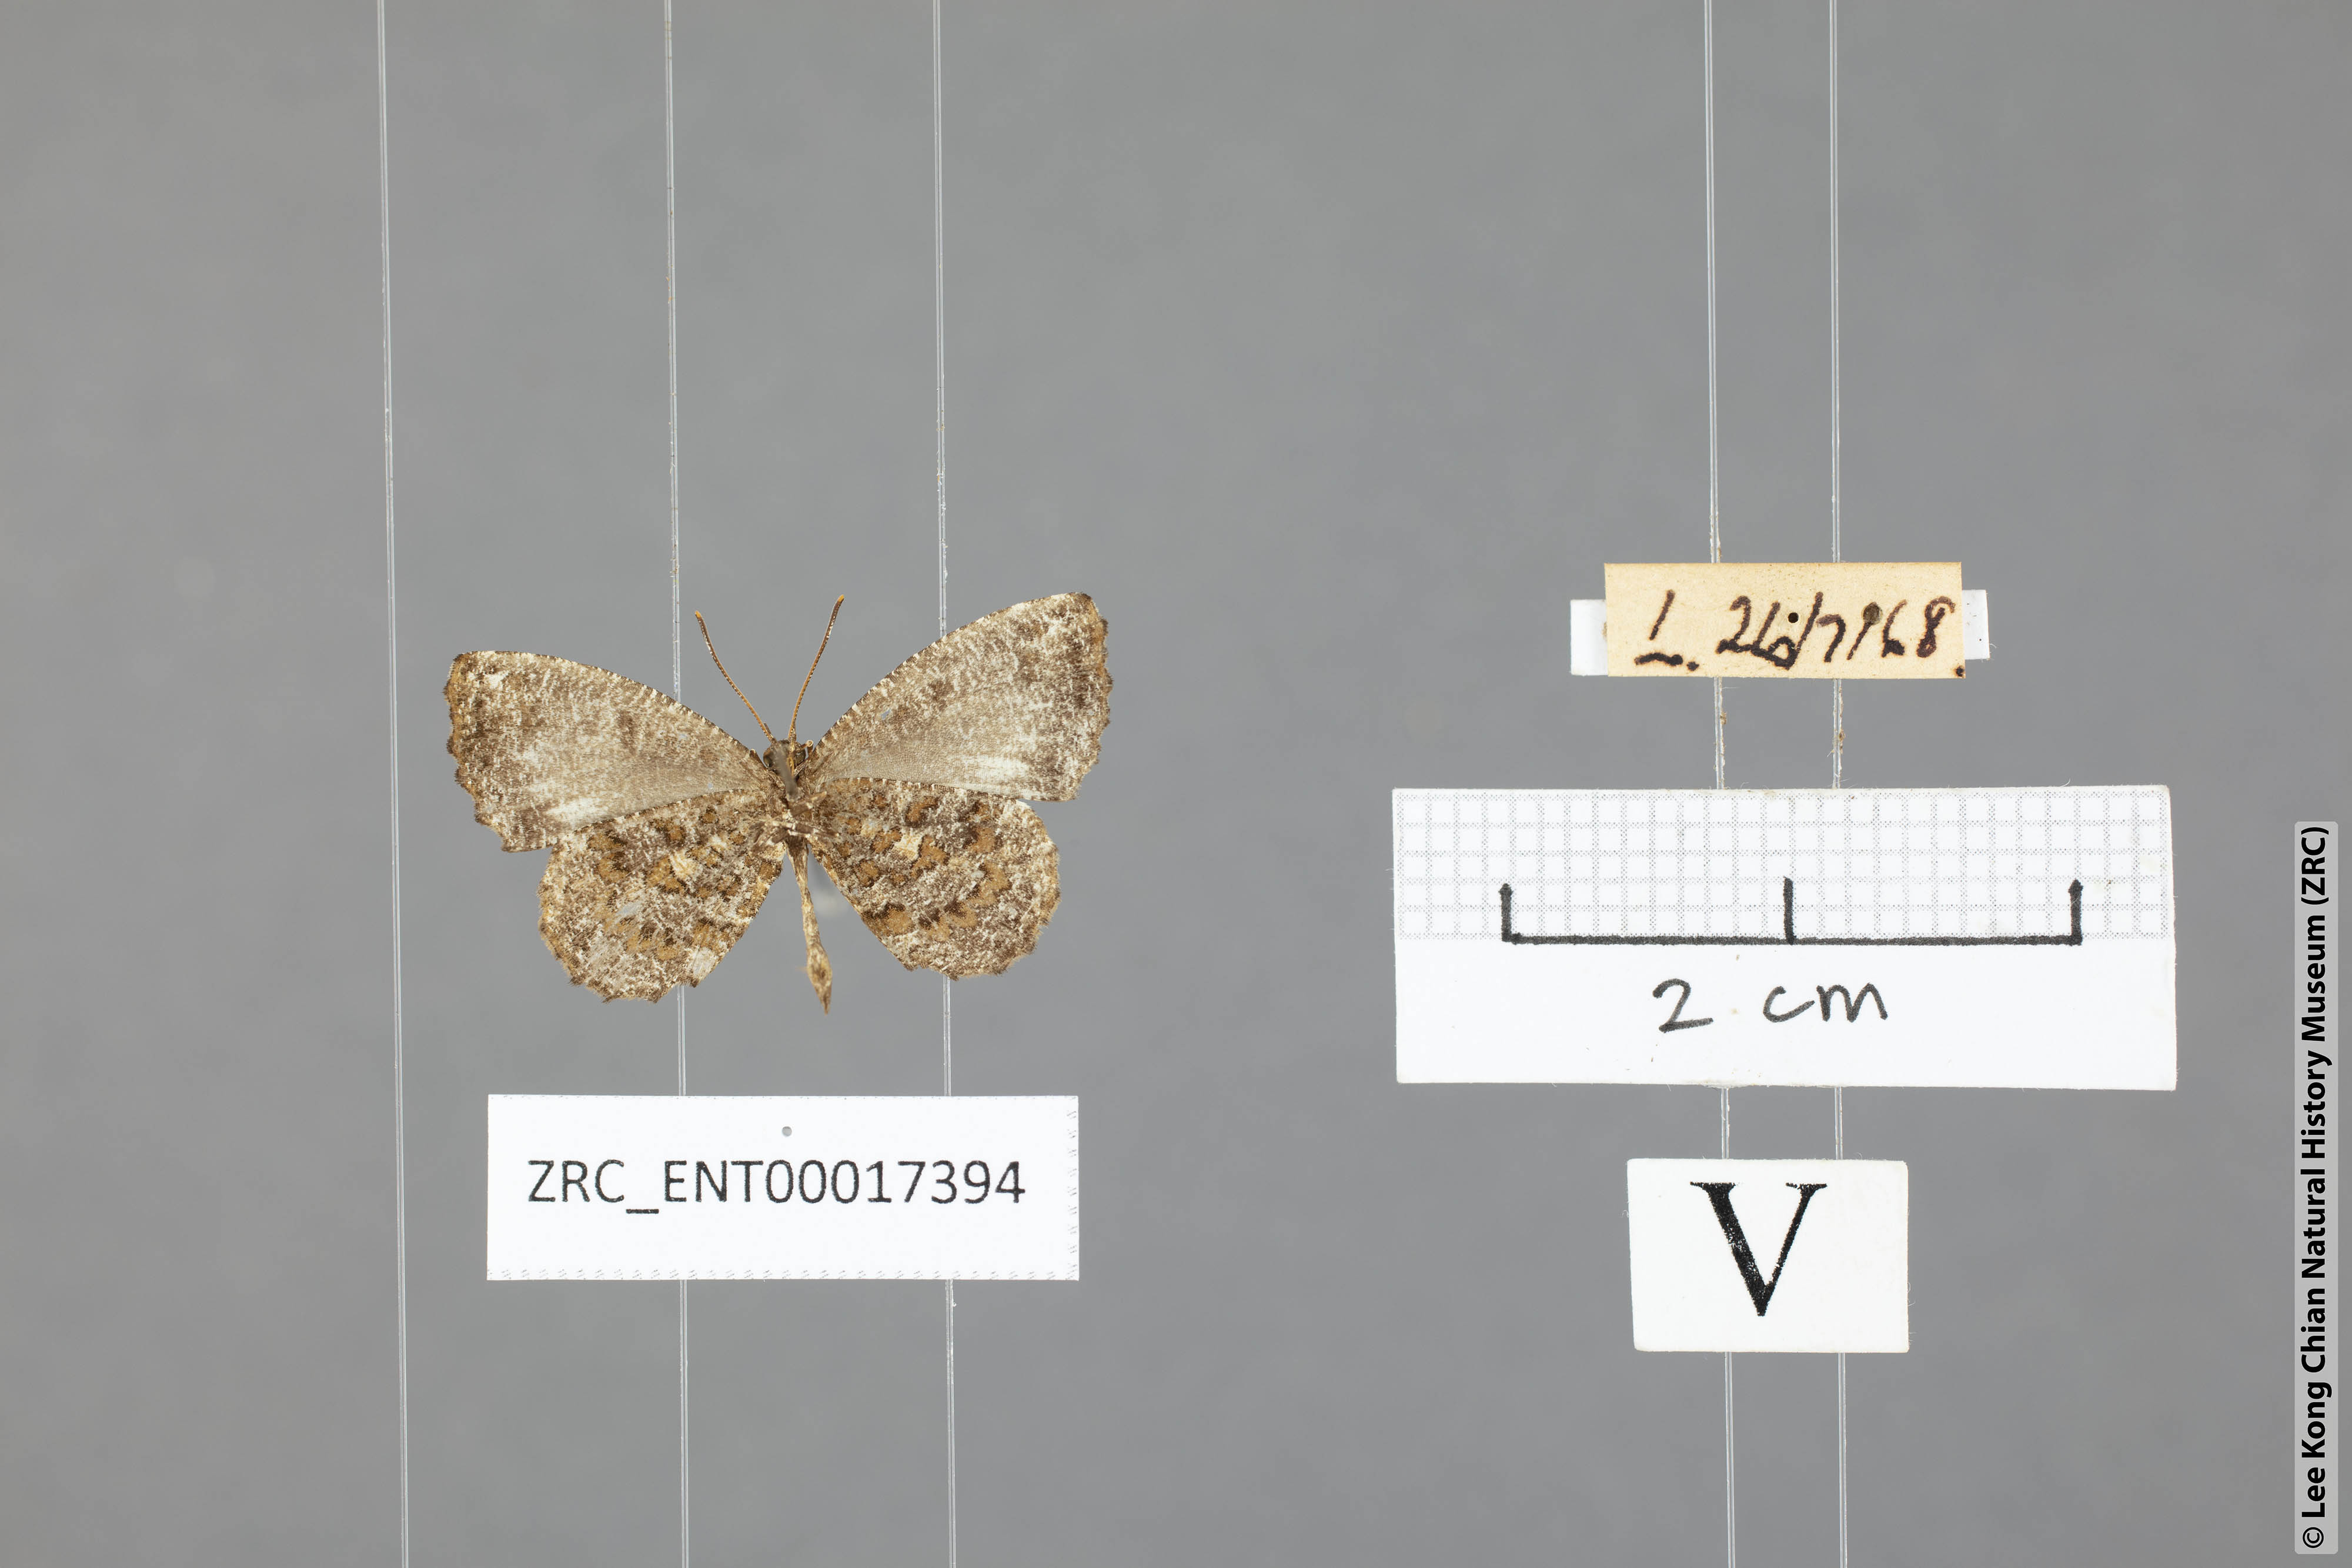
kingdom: Animalia
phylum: Arthropoda
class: Insecta
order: Lepidoptera
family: Lycaenidae
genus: Logania
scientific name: Logania marmorata
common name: Pale mottle
